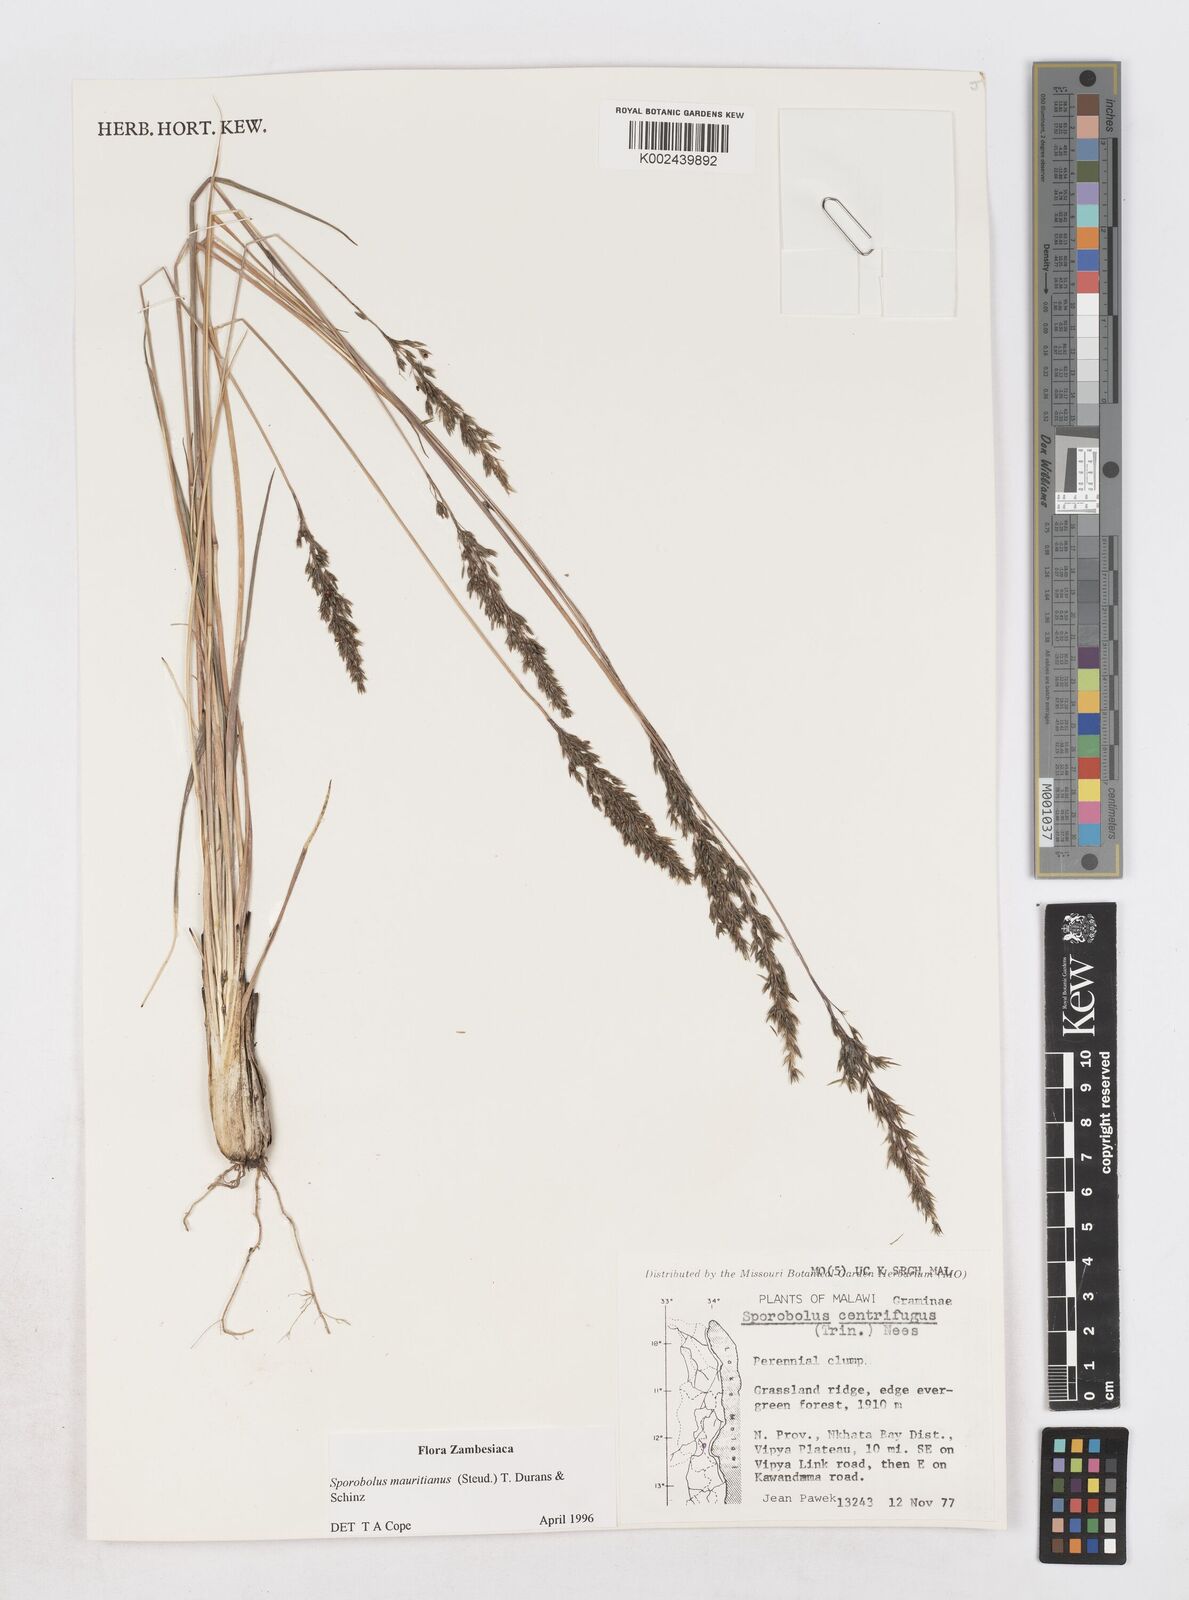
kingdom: Plantae
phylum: Tracheophyta
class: Liliopsida
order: Poales
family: Poaceae
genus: Sporobolus
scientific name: Sporobolus subulatus
